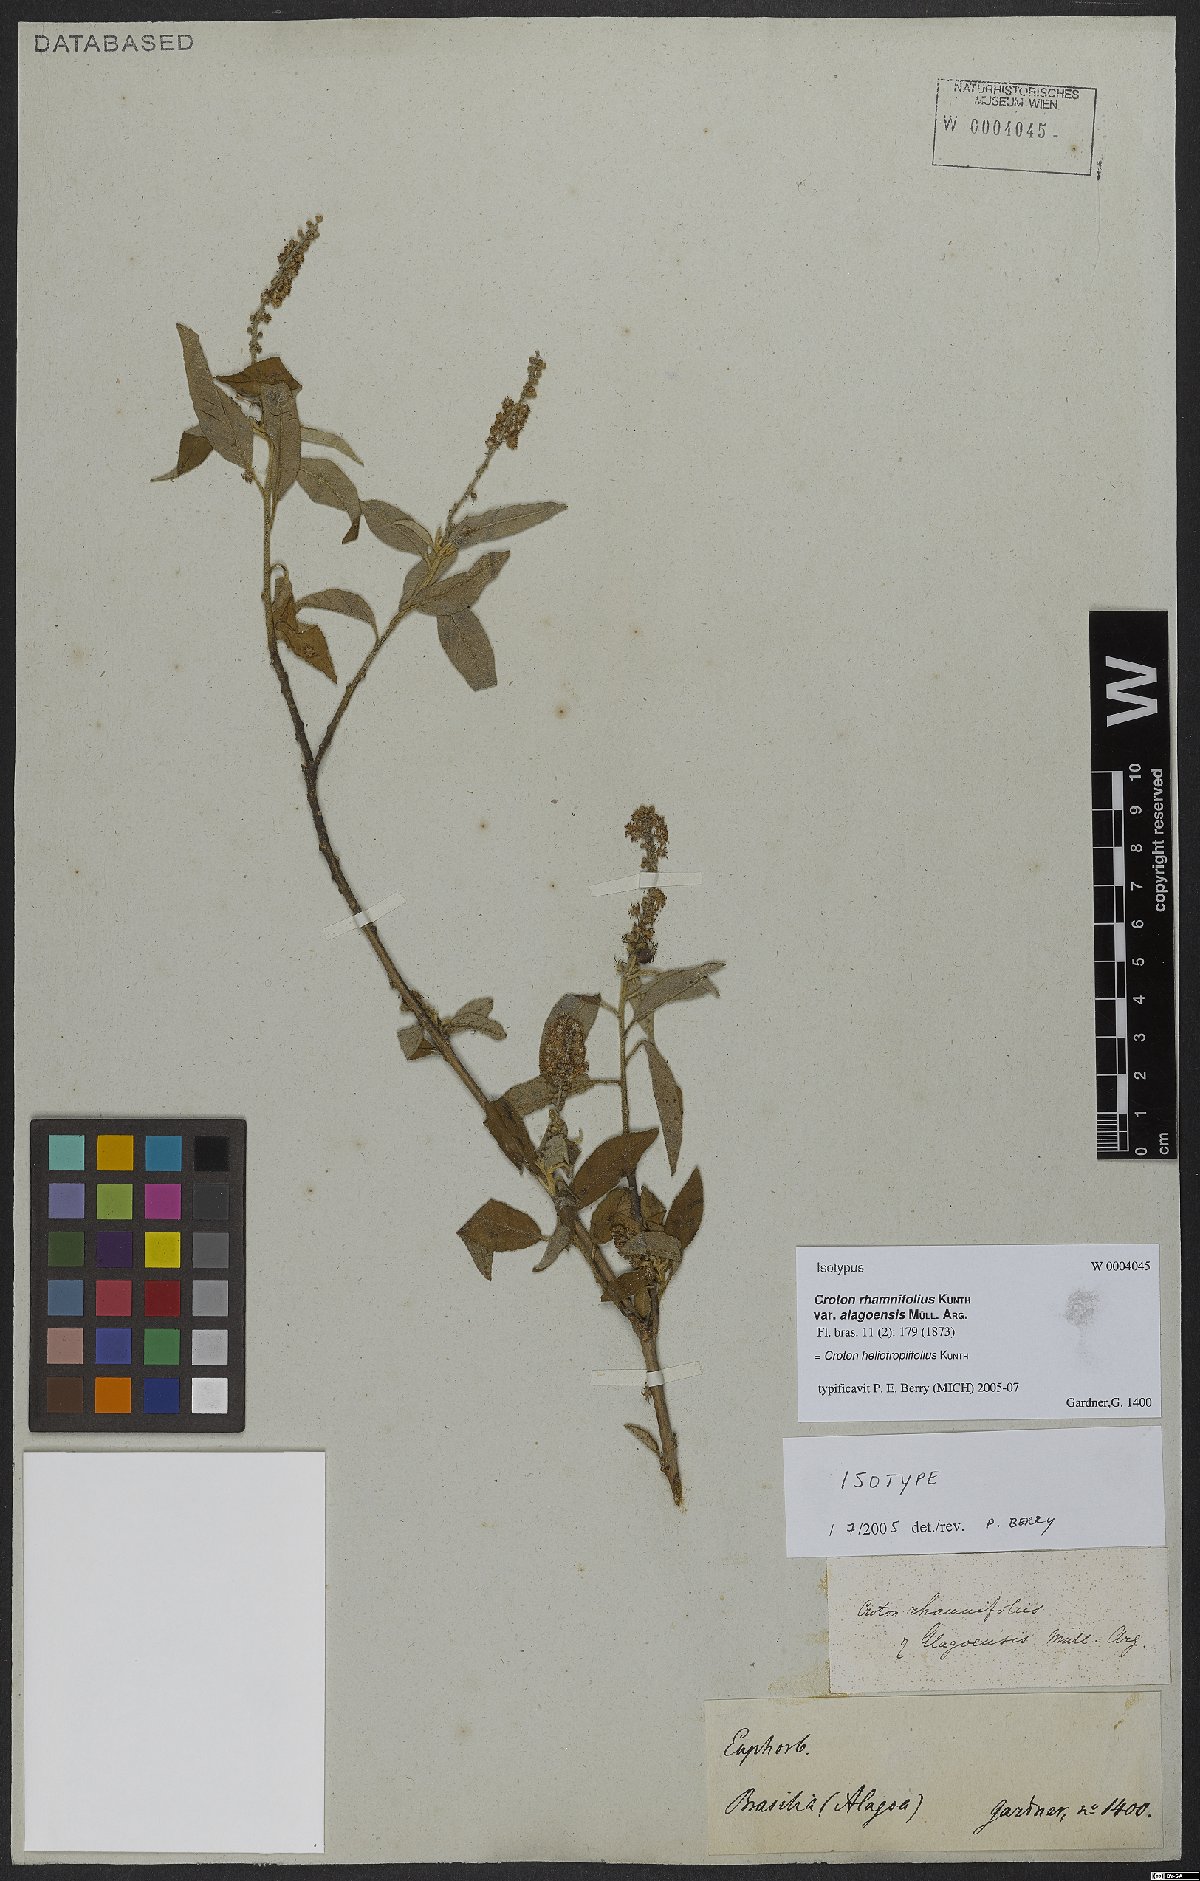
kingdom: Plantae
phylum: Tracheophyta
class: Magnoliopsida
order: Malpighiales
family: Euphorbiaceae
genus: Croton
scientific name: Croton heliotropiifolius
